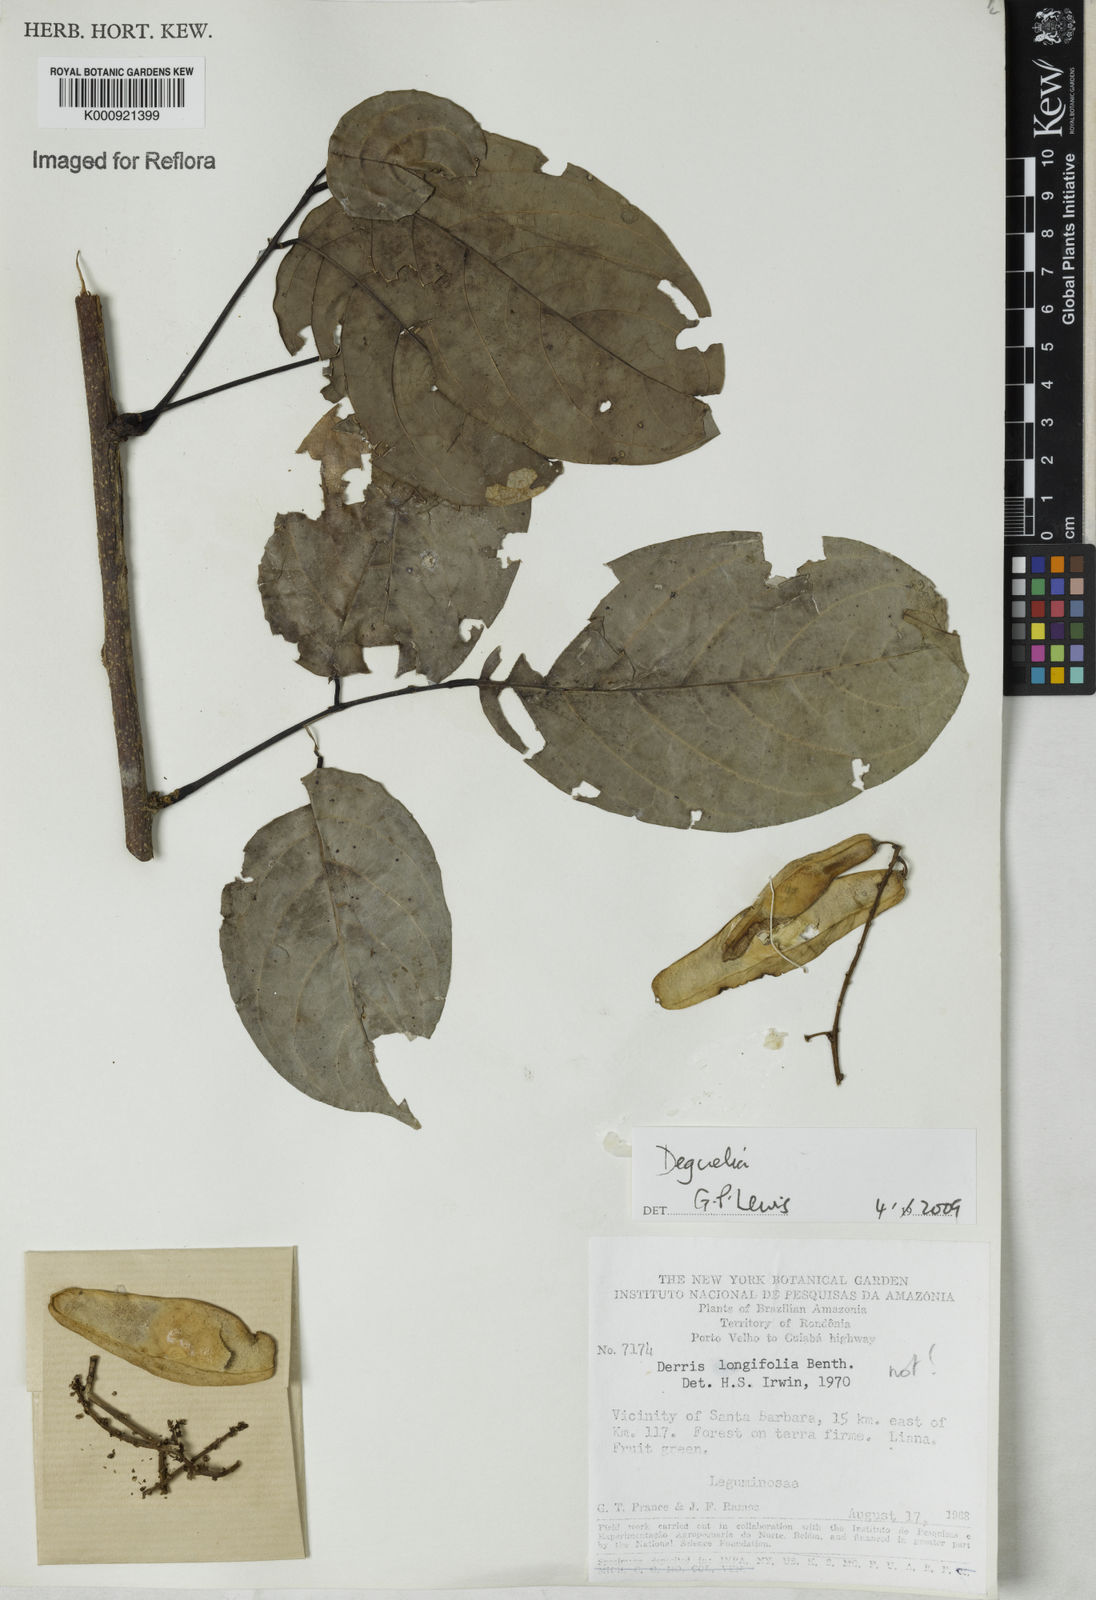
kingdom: Plantae
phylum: Tracheophyta
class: Magnoliopsida
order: Fabales
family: Fabaceae
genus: Deguelia
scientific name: Deguelia
